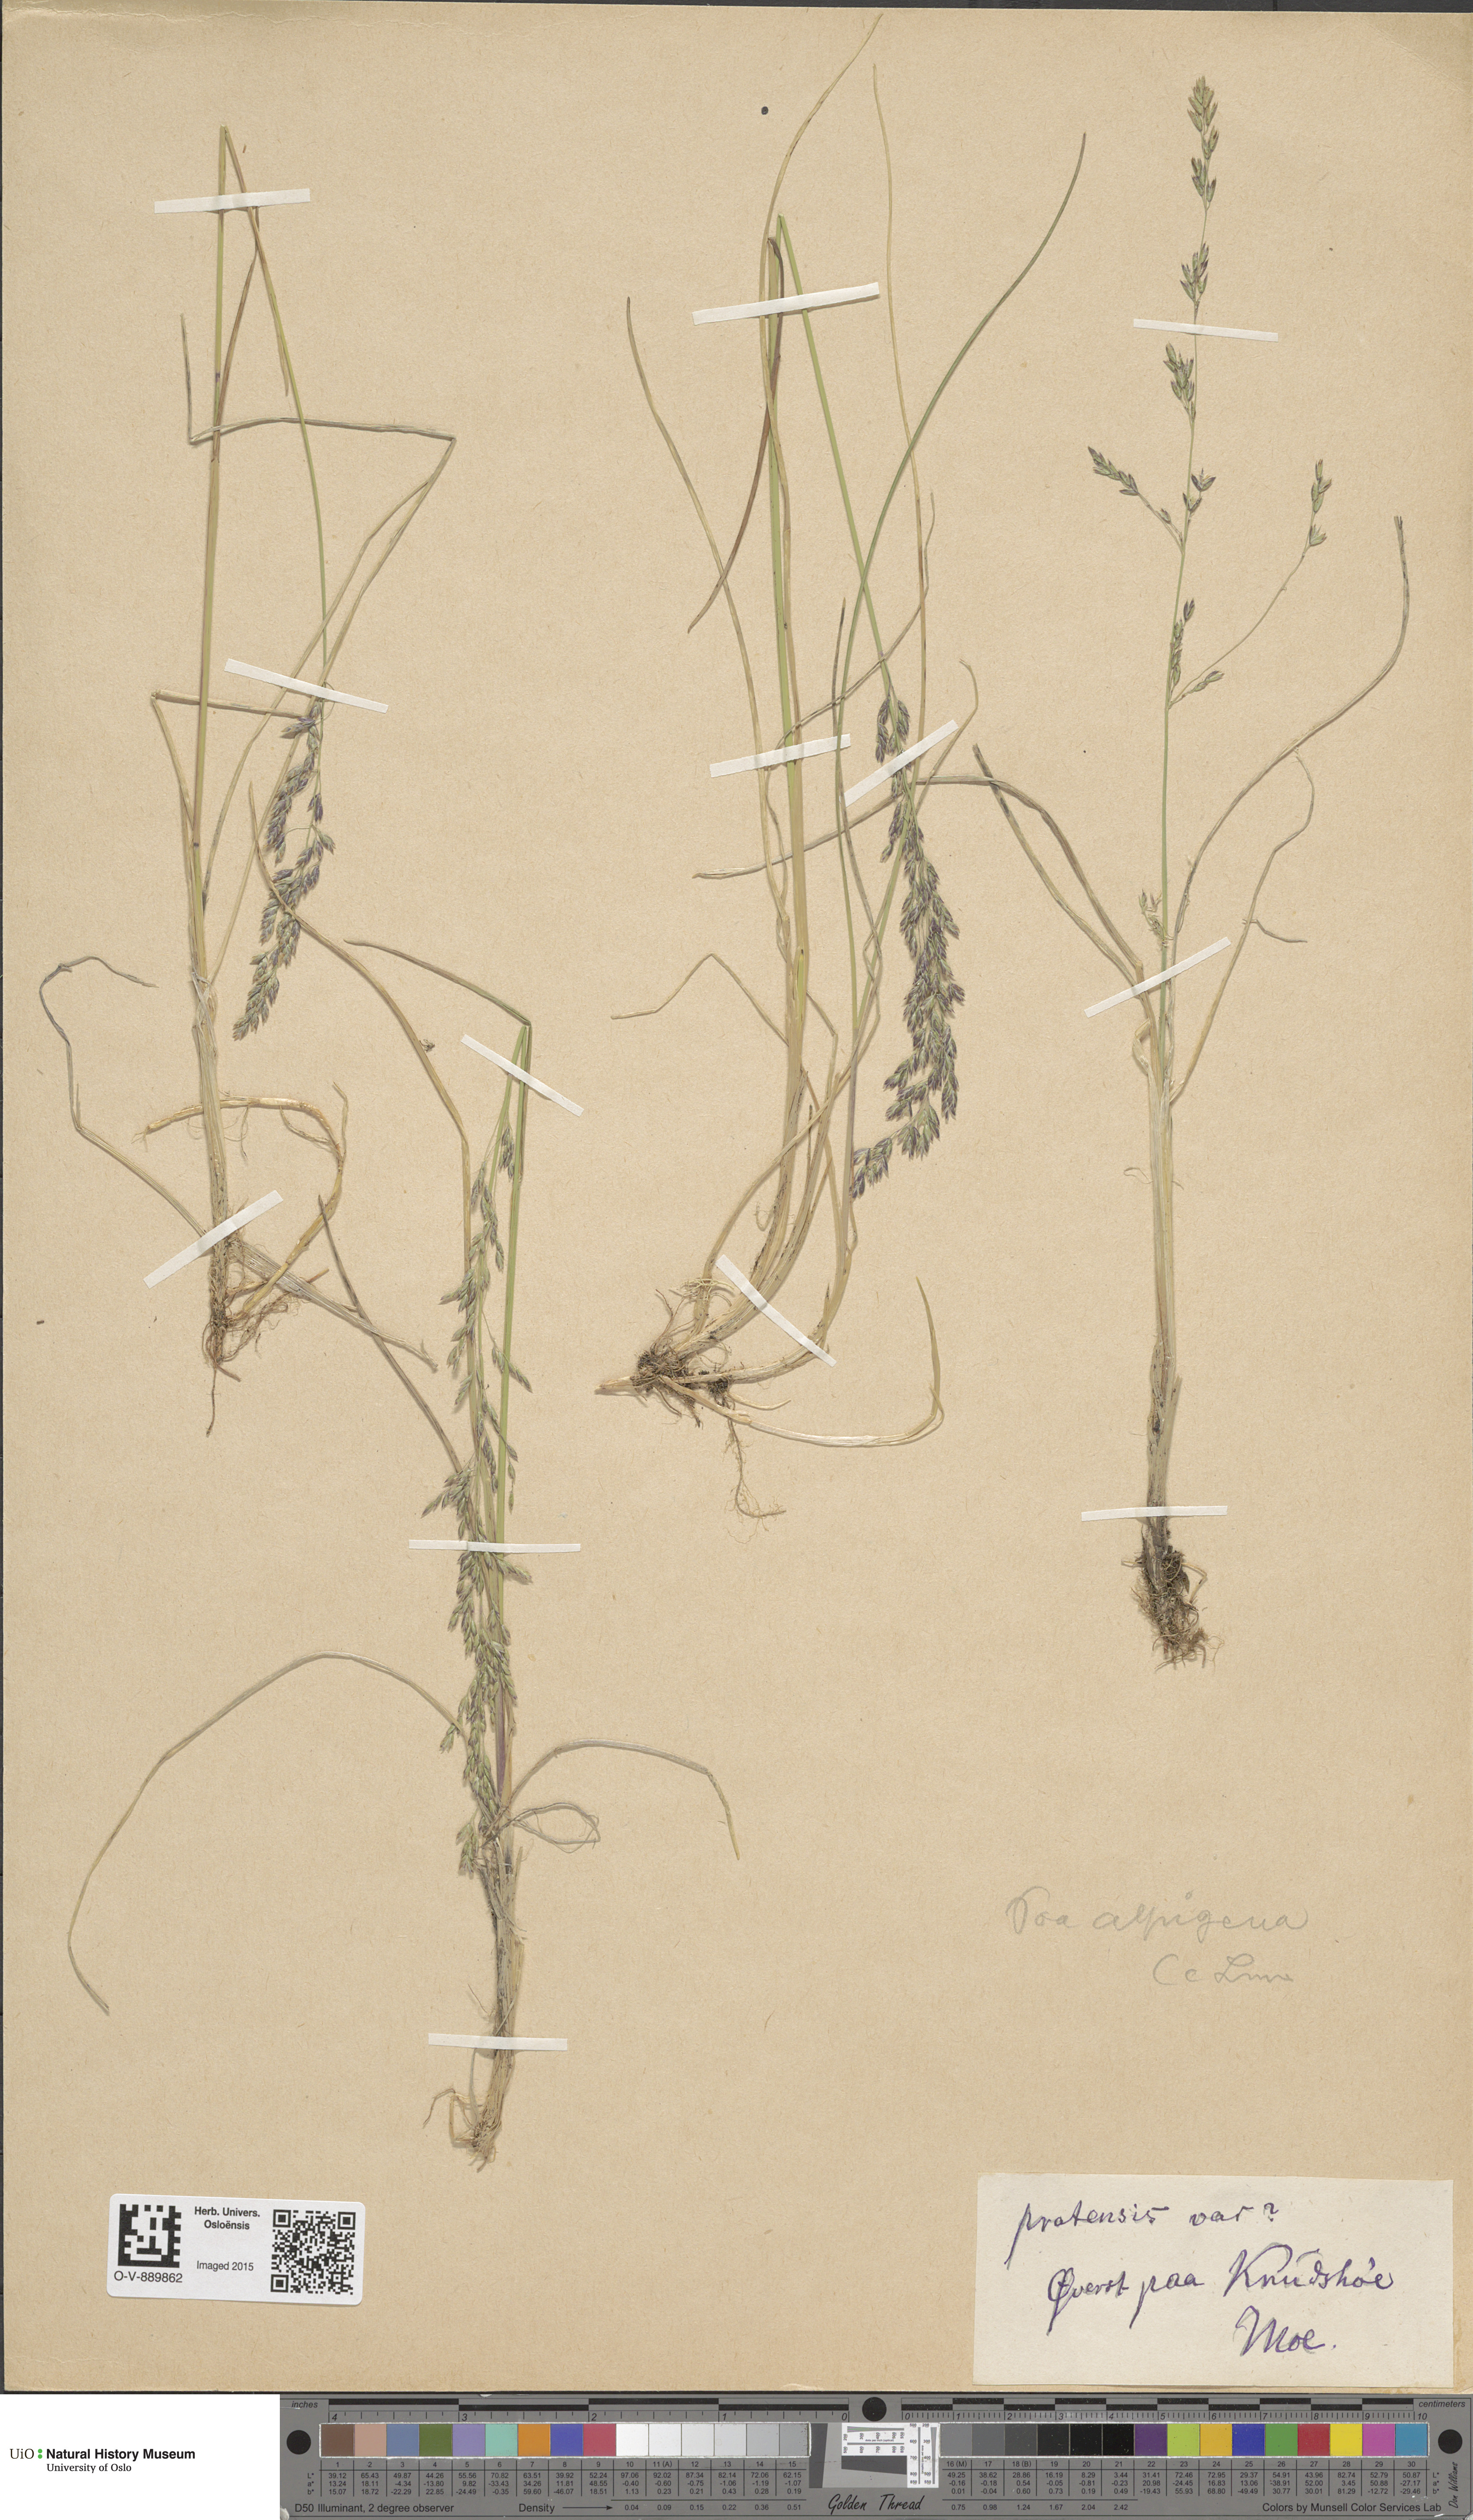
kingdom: Plantae
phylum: Tracheophyta
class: Liliopsida
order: Poales
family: Poaceae
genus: Poa
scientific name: Poa alpigena
